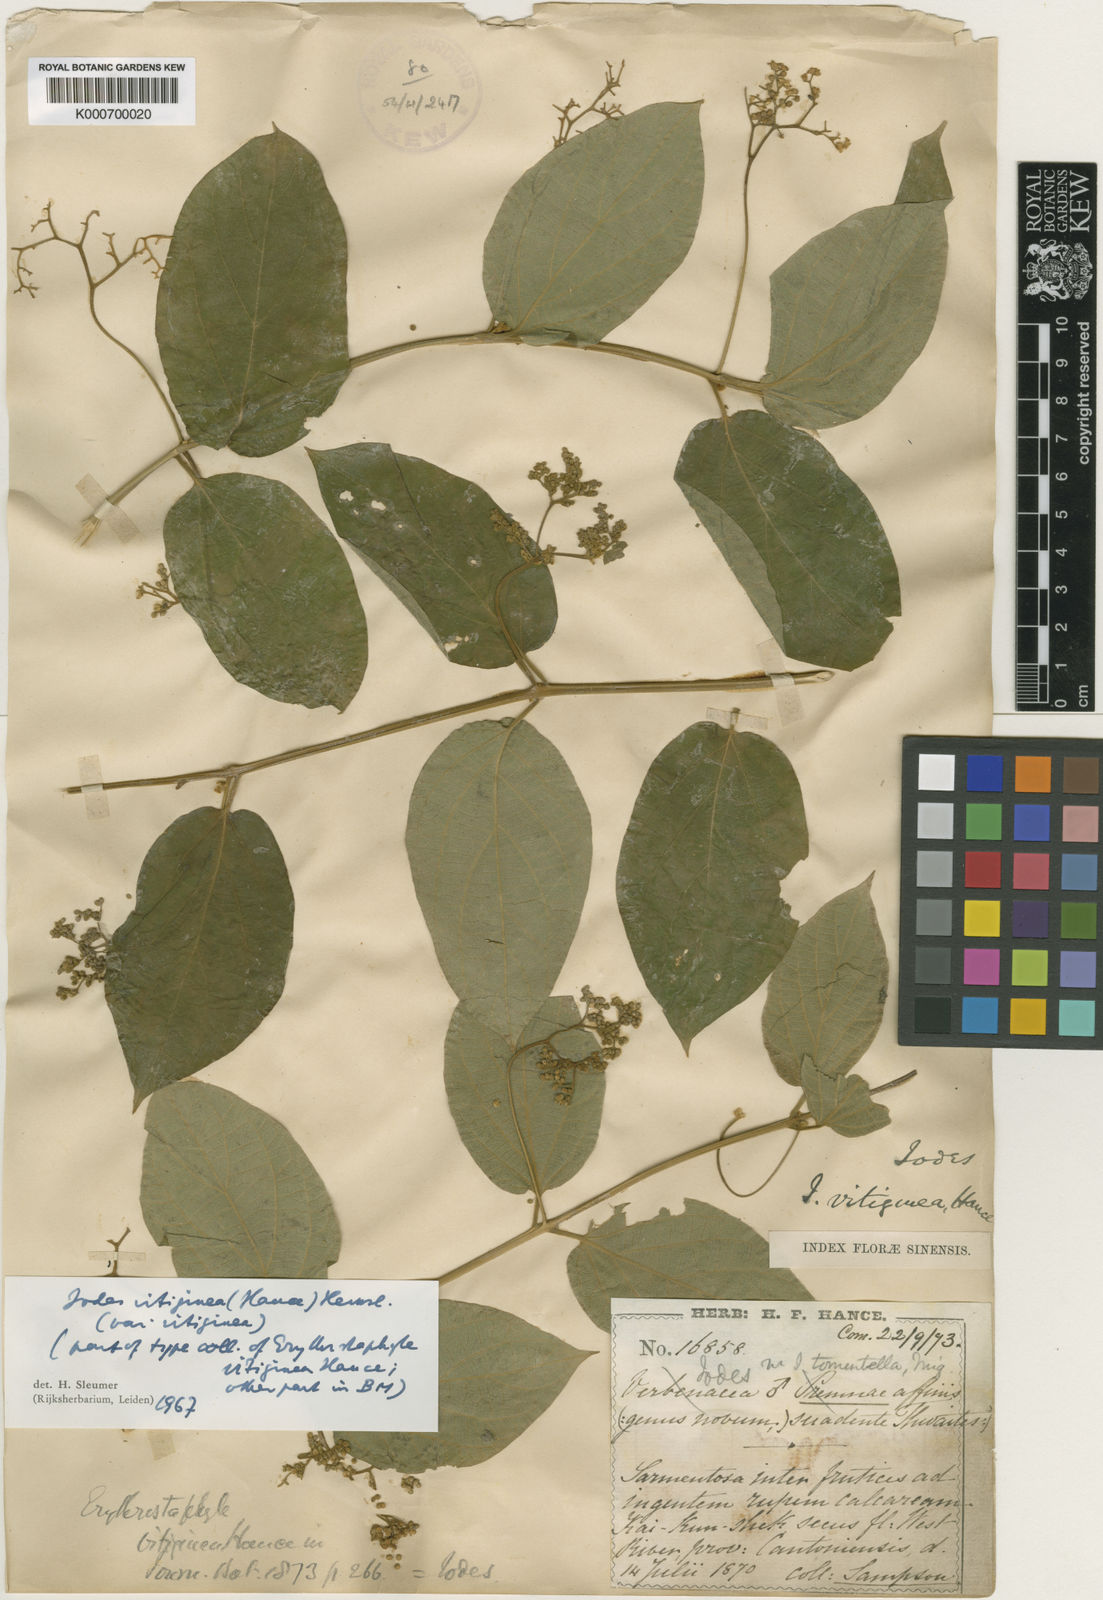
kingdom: Plantae
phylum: Tracheophyta
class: Magnoliopsida
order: Icacinales
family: Icacinaceae
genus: Iodes
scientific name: Iodes
